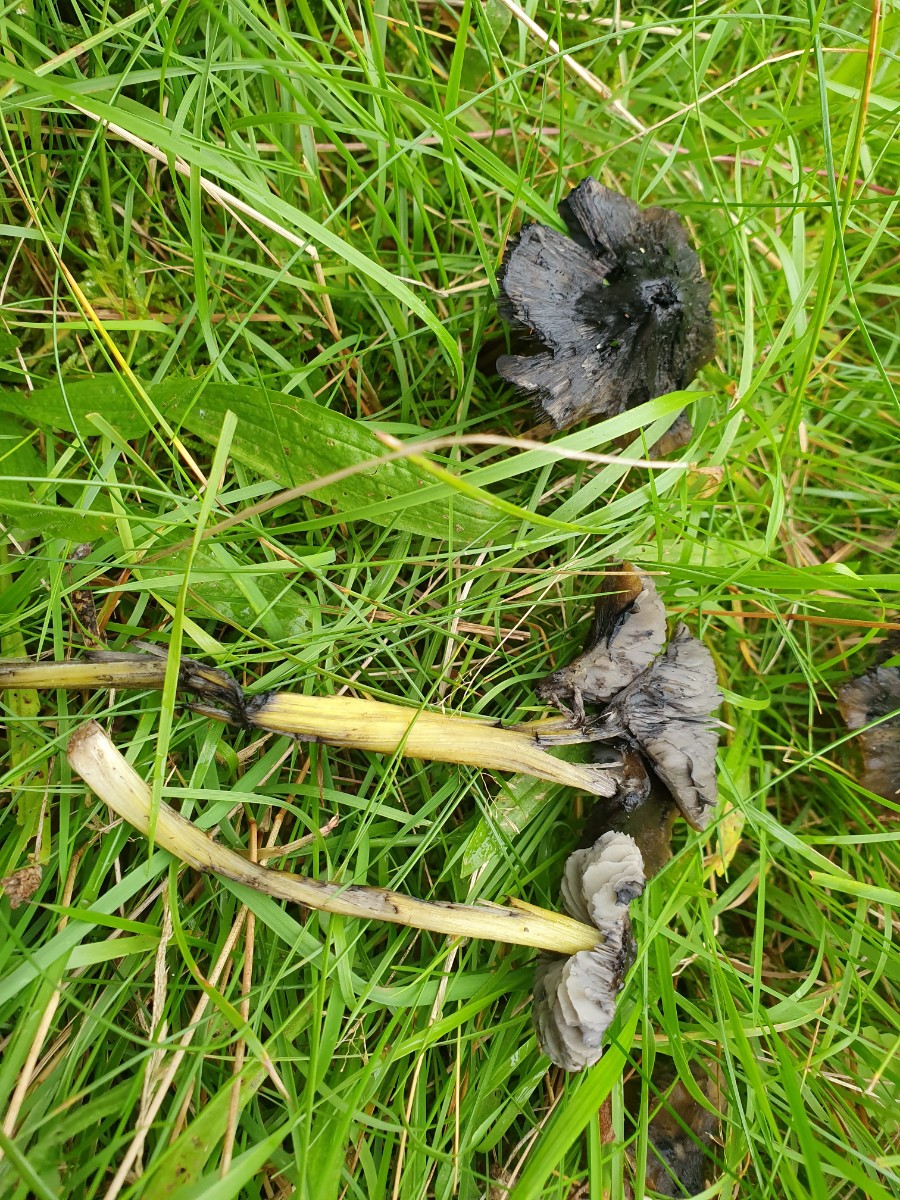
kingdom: Fungi
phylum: Basidiomycota
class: Agaricomycetes
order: Agaricales
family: Hygrophoraceae
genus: Hygrocybe
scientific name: Hygrocybe conica
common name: kegle-vokshat
